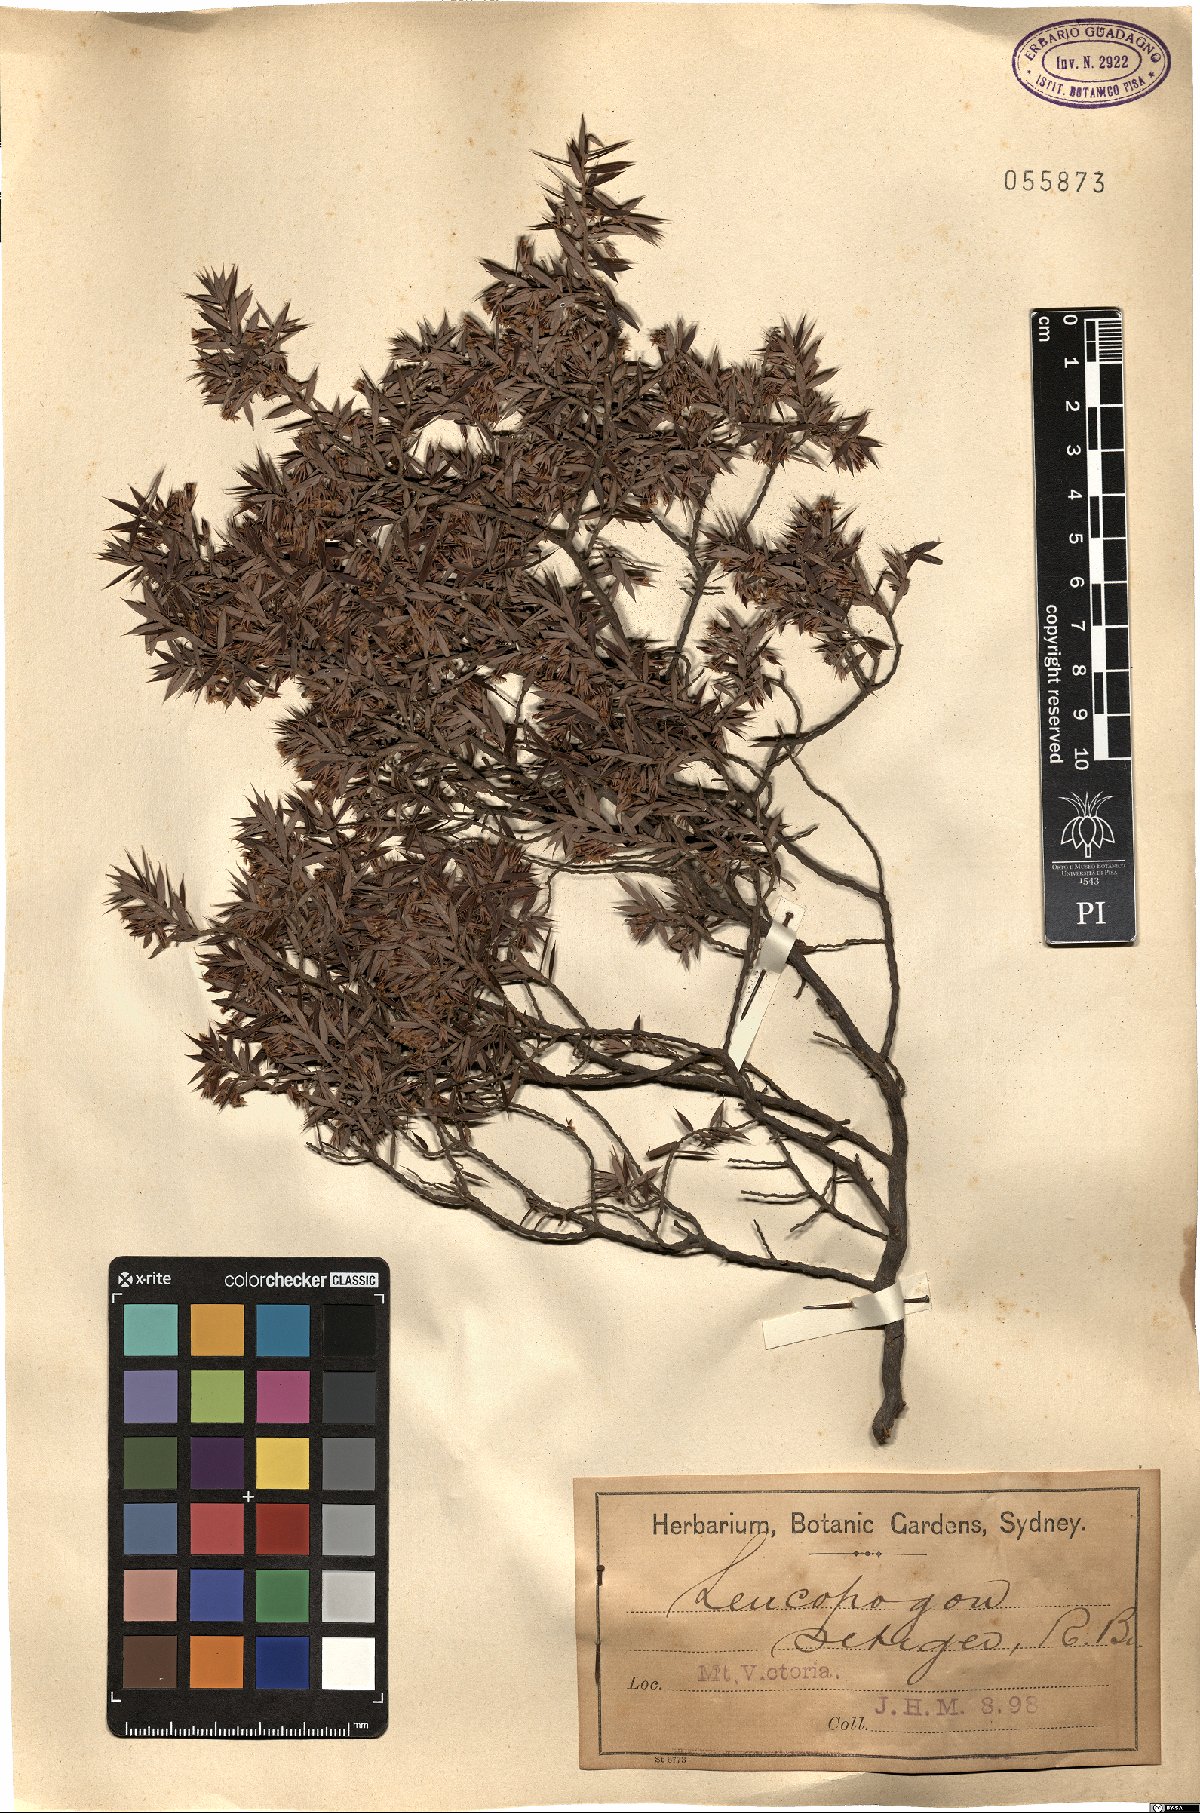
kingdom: Plantae
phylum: Tracheophyta
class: Magnoliopsida
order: Ericales
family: Ericaceae
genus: Styphelia
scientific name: Styphelia setigera
